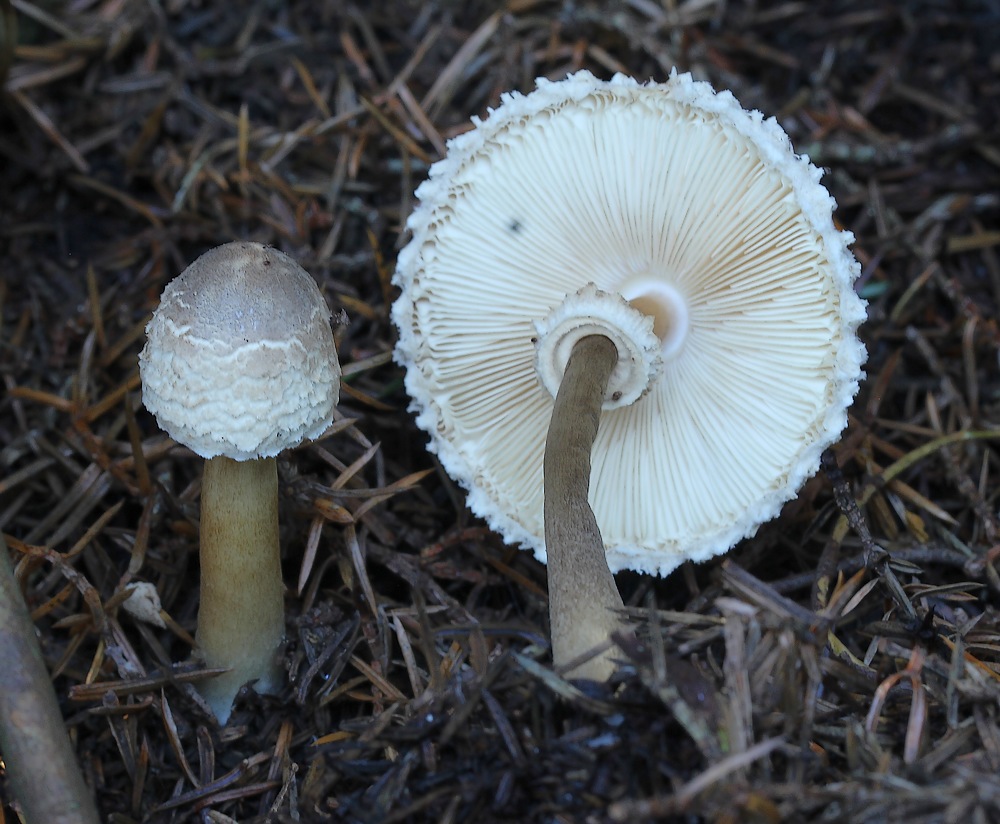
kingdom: Fungi
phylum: Basidiomycota
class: Agaricomycetes
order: Agaricales
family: Agaricaceae
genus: Leucoagaricus
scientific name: Leucoagaricus nympharum
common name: gran-silkehat
